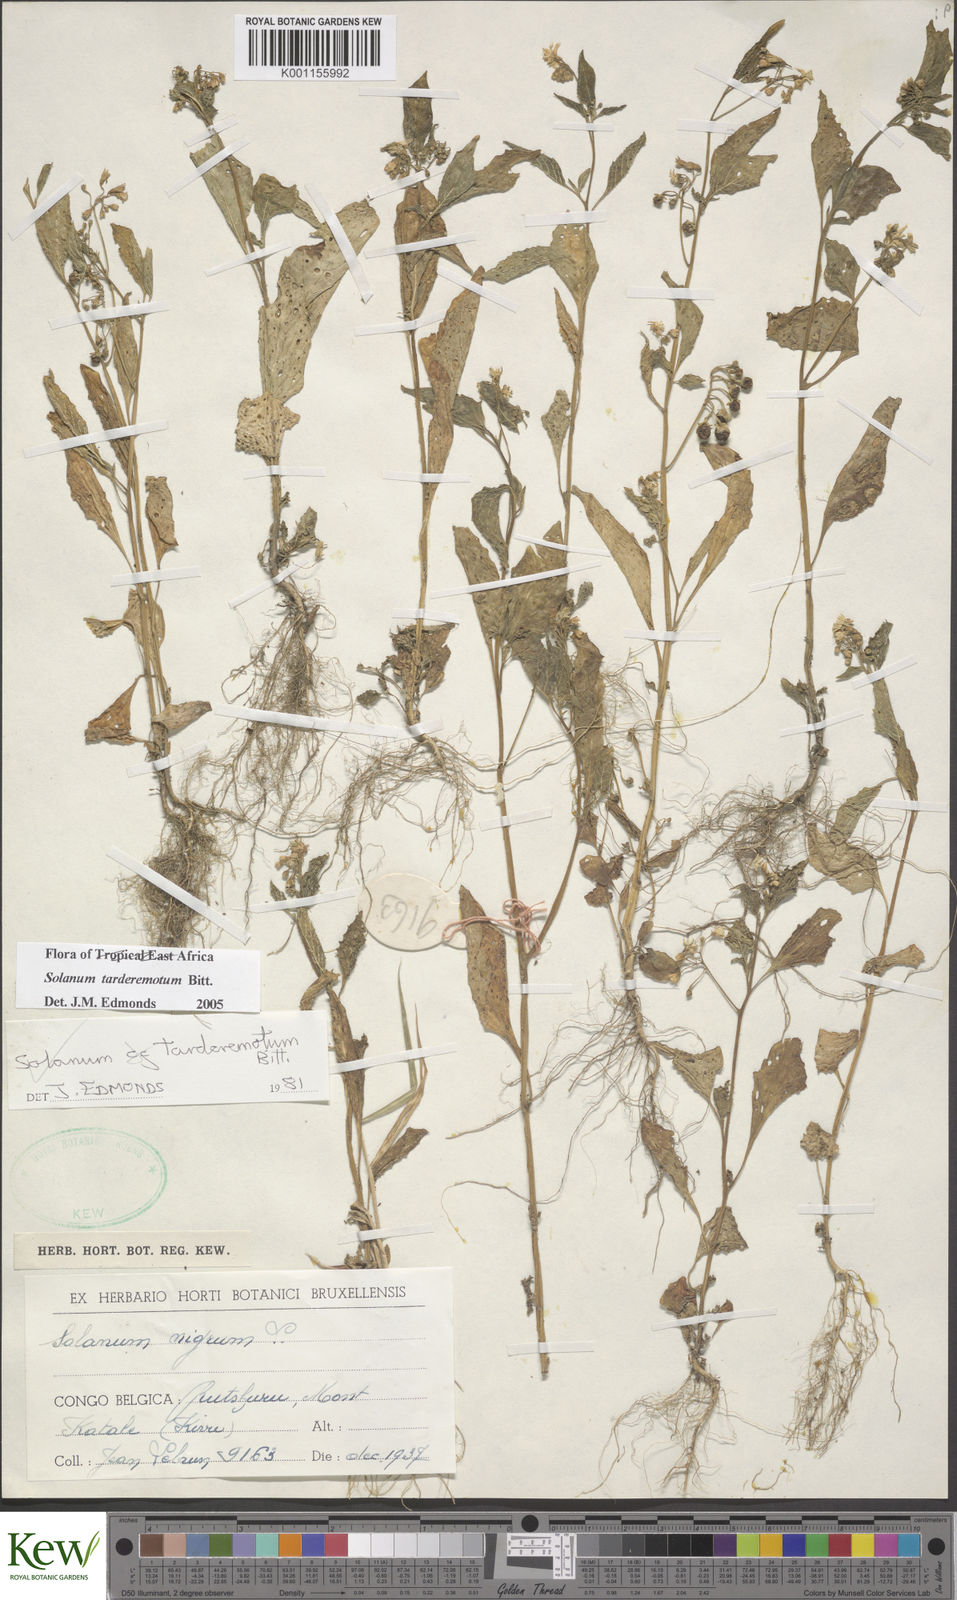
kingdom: Plantae
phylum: Tracheophyta
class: Magnoliopsida
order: Solanales
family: Solanaceae
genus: Solanum
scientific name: Solanum tarderemotum
